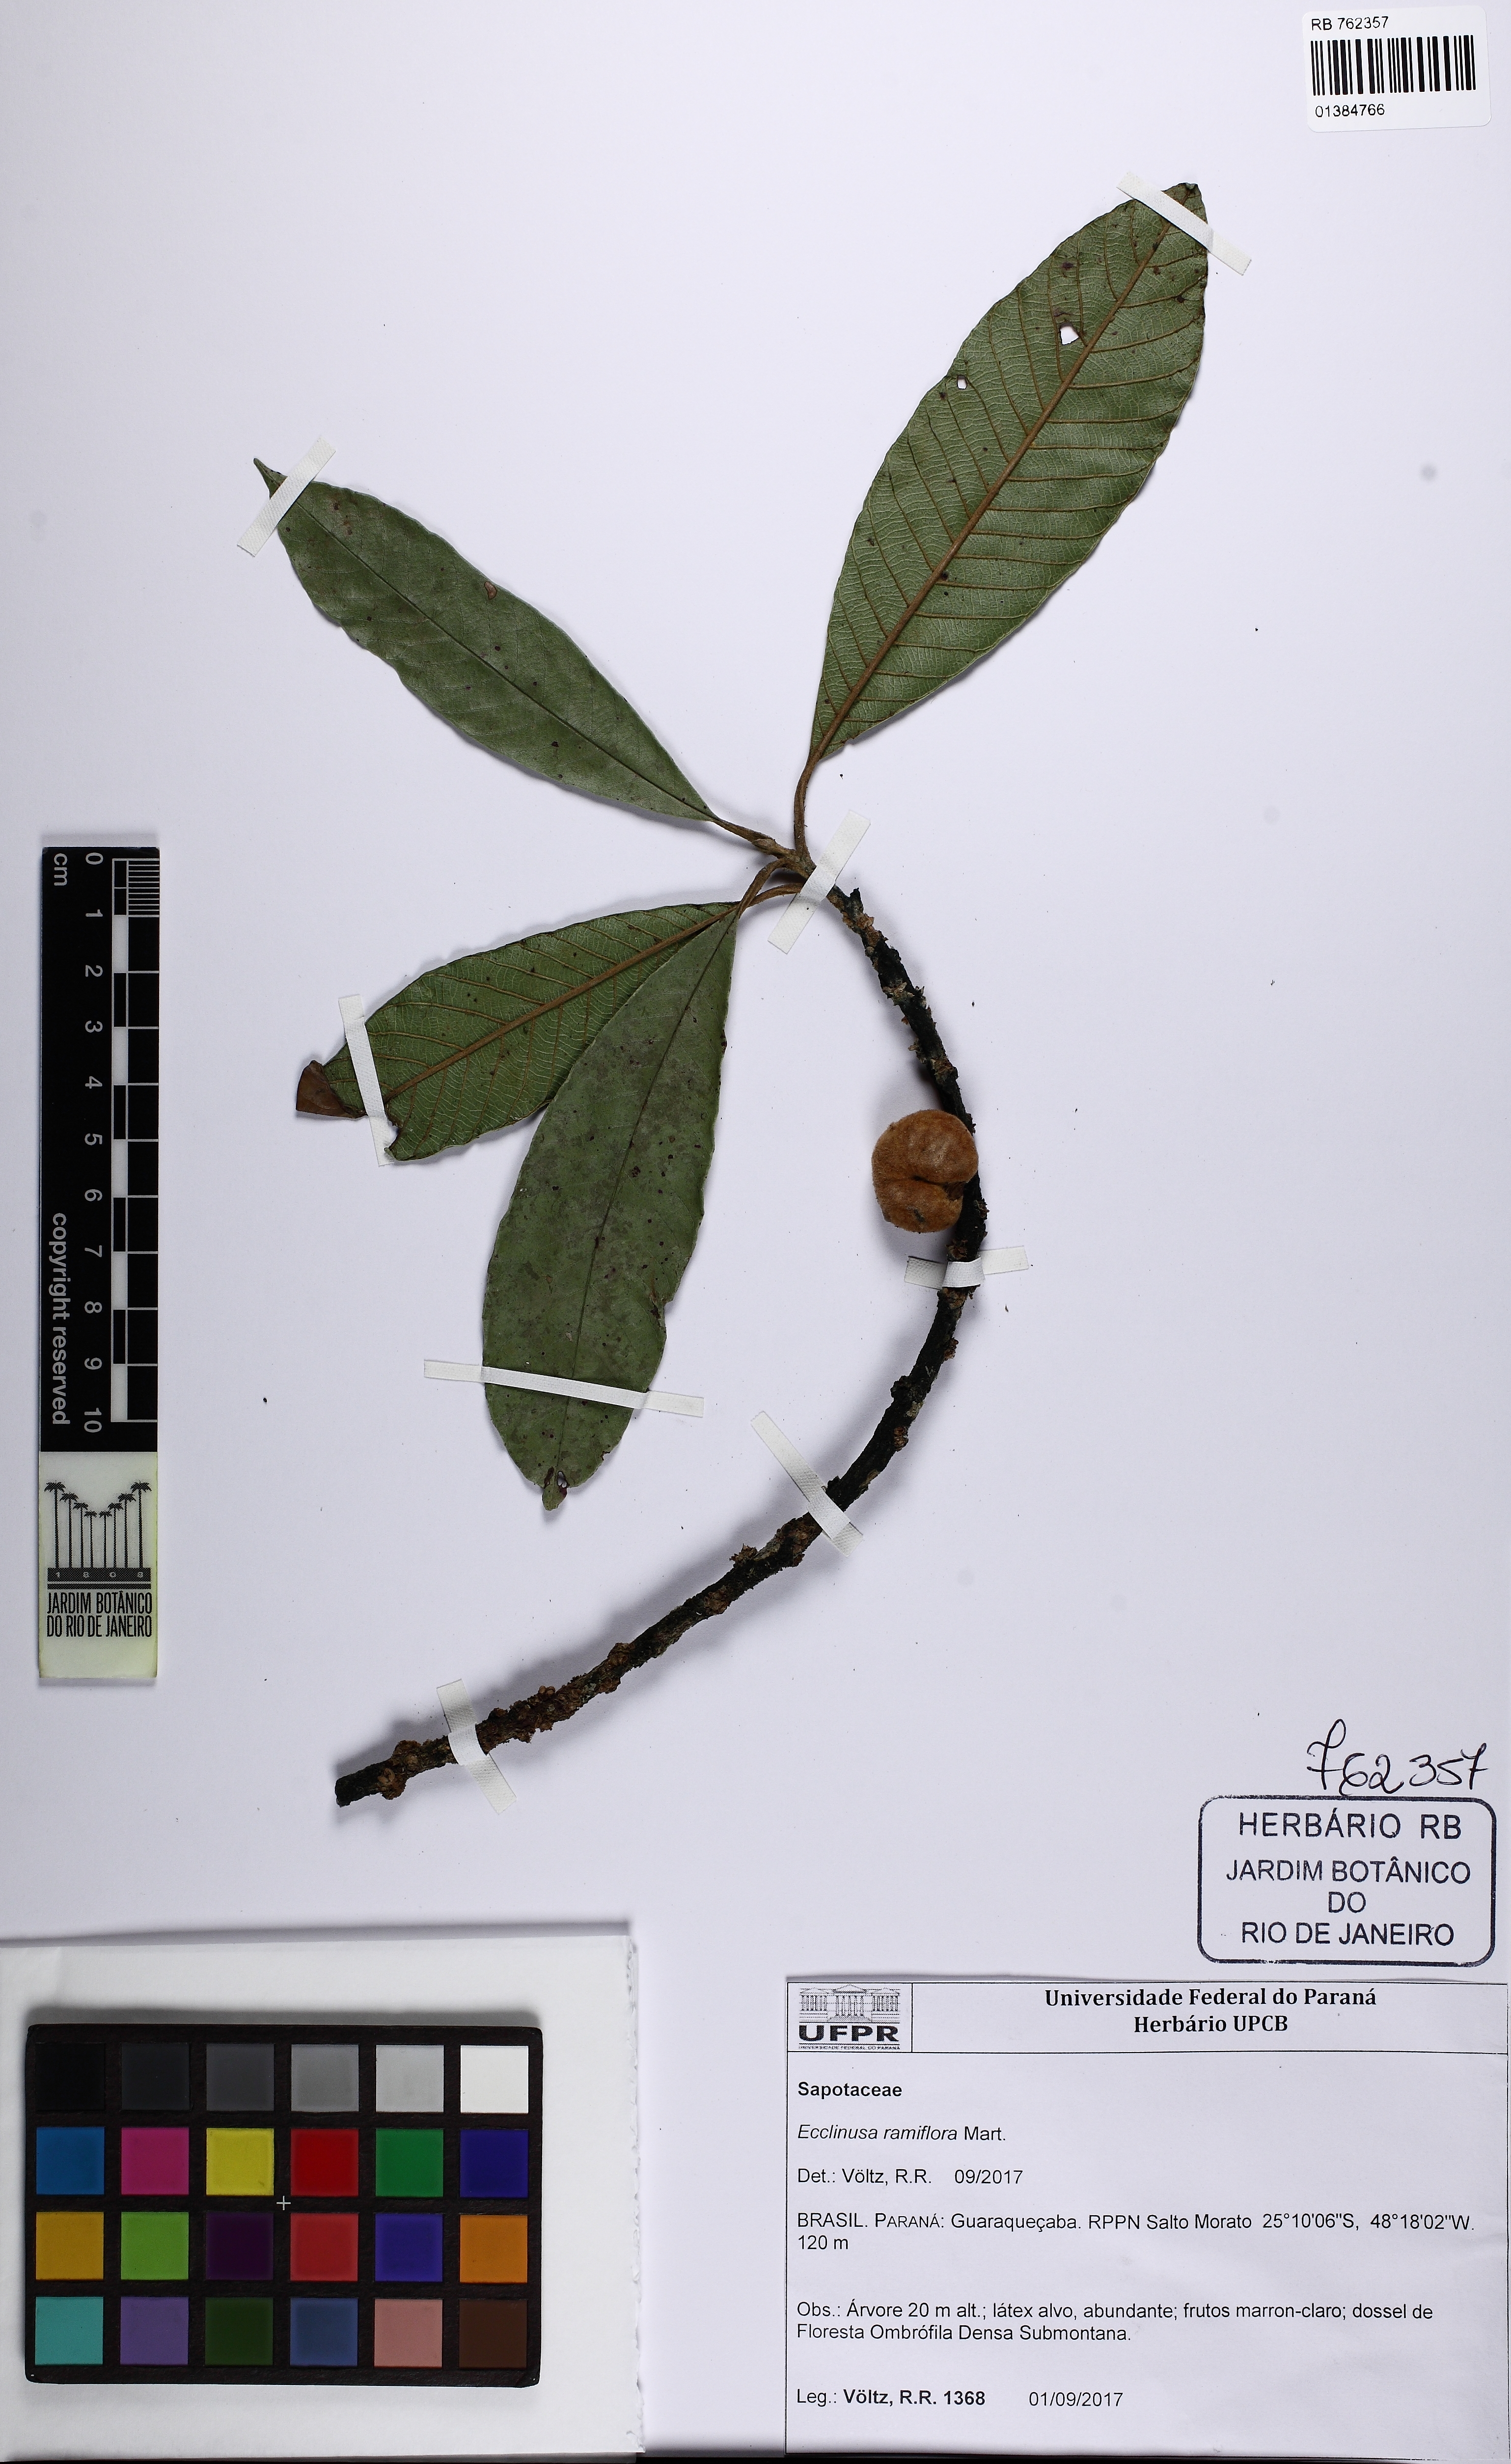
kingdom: Plantae
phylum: Tracheophyta
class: Magnoliopsida
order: Ericales
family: Sapotaceae
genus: Ecclinusa
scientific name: Ecclinusa ramiflora
